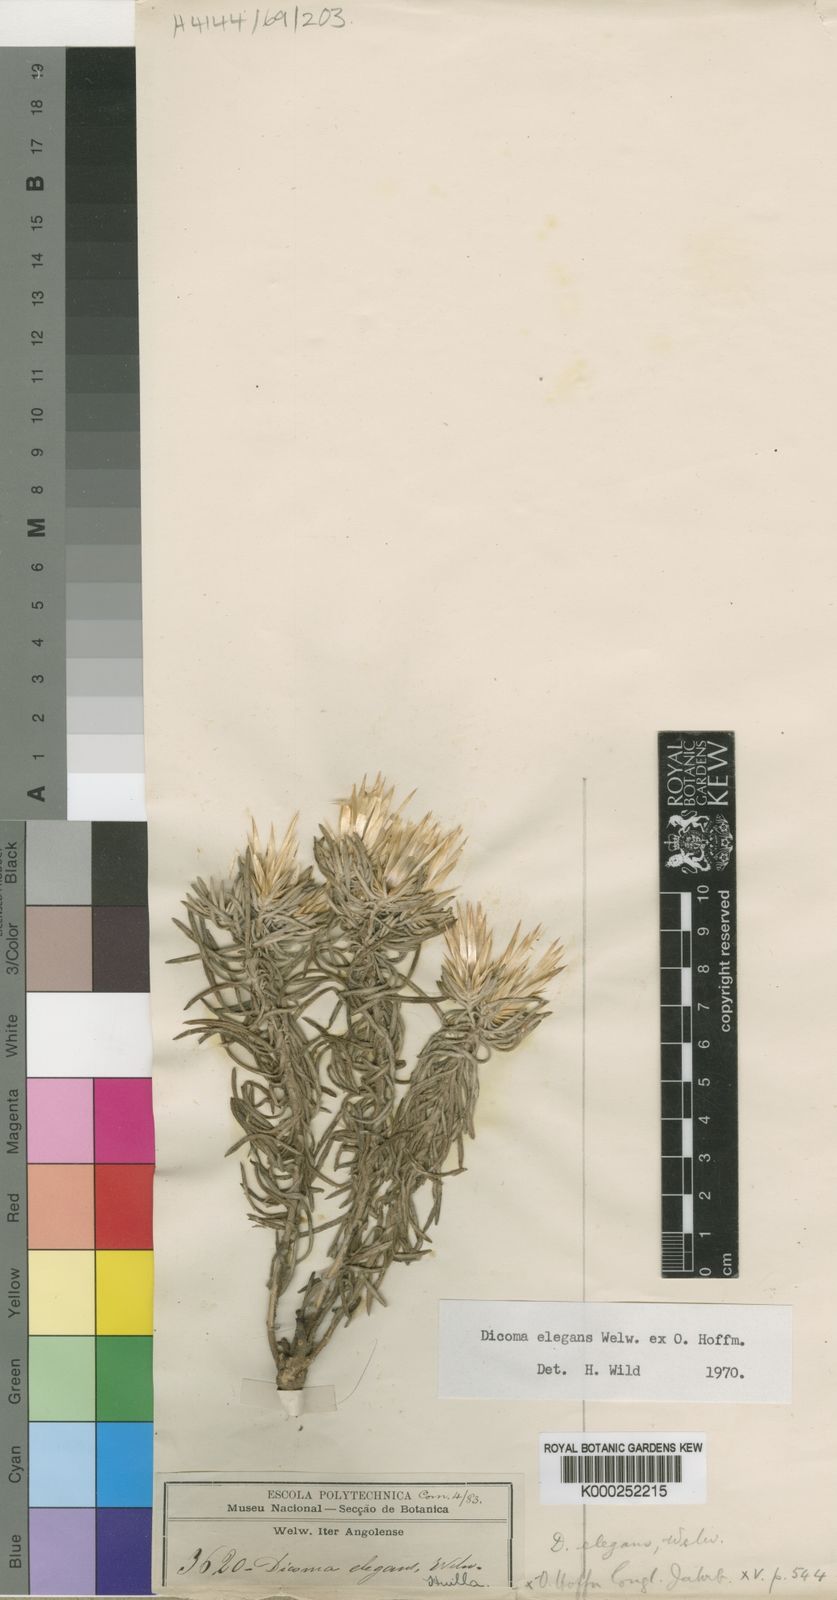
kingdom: Plantae
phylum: Tracheophyta
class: Magnoliopsida
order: Asterales
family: Asteraceae
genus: Dicoma
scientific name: Dicoma elegans
